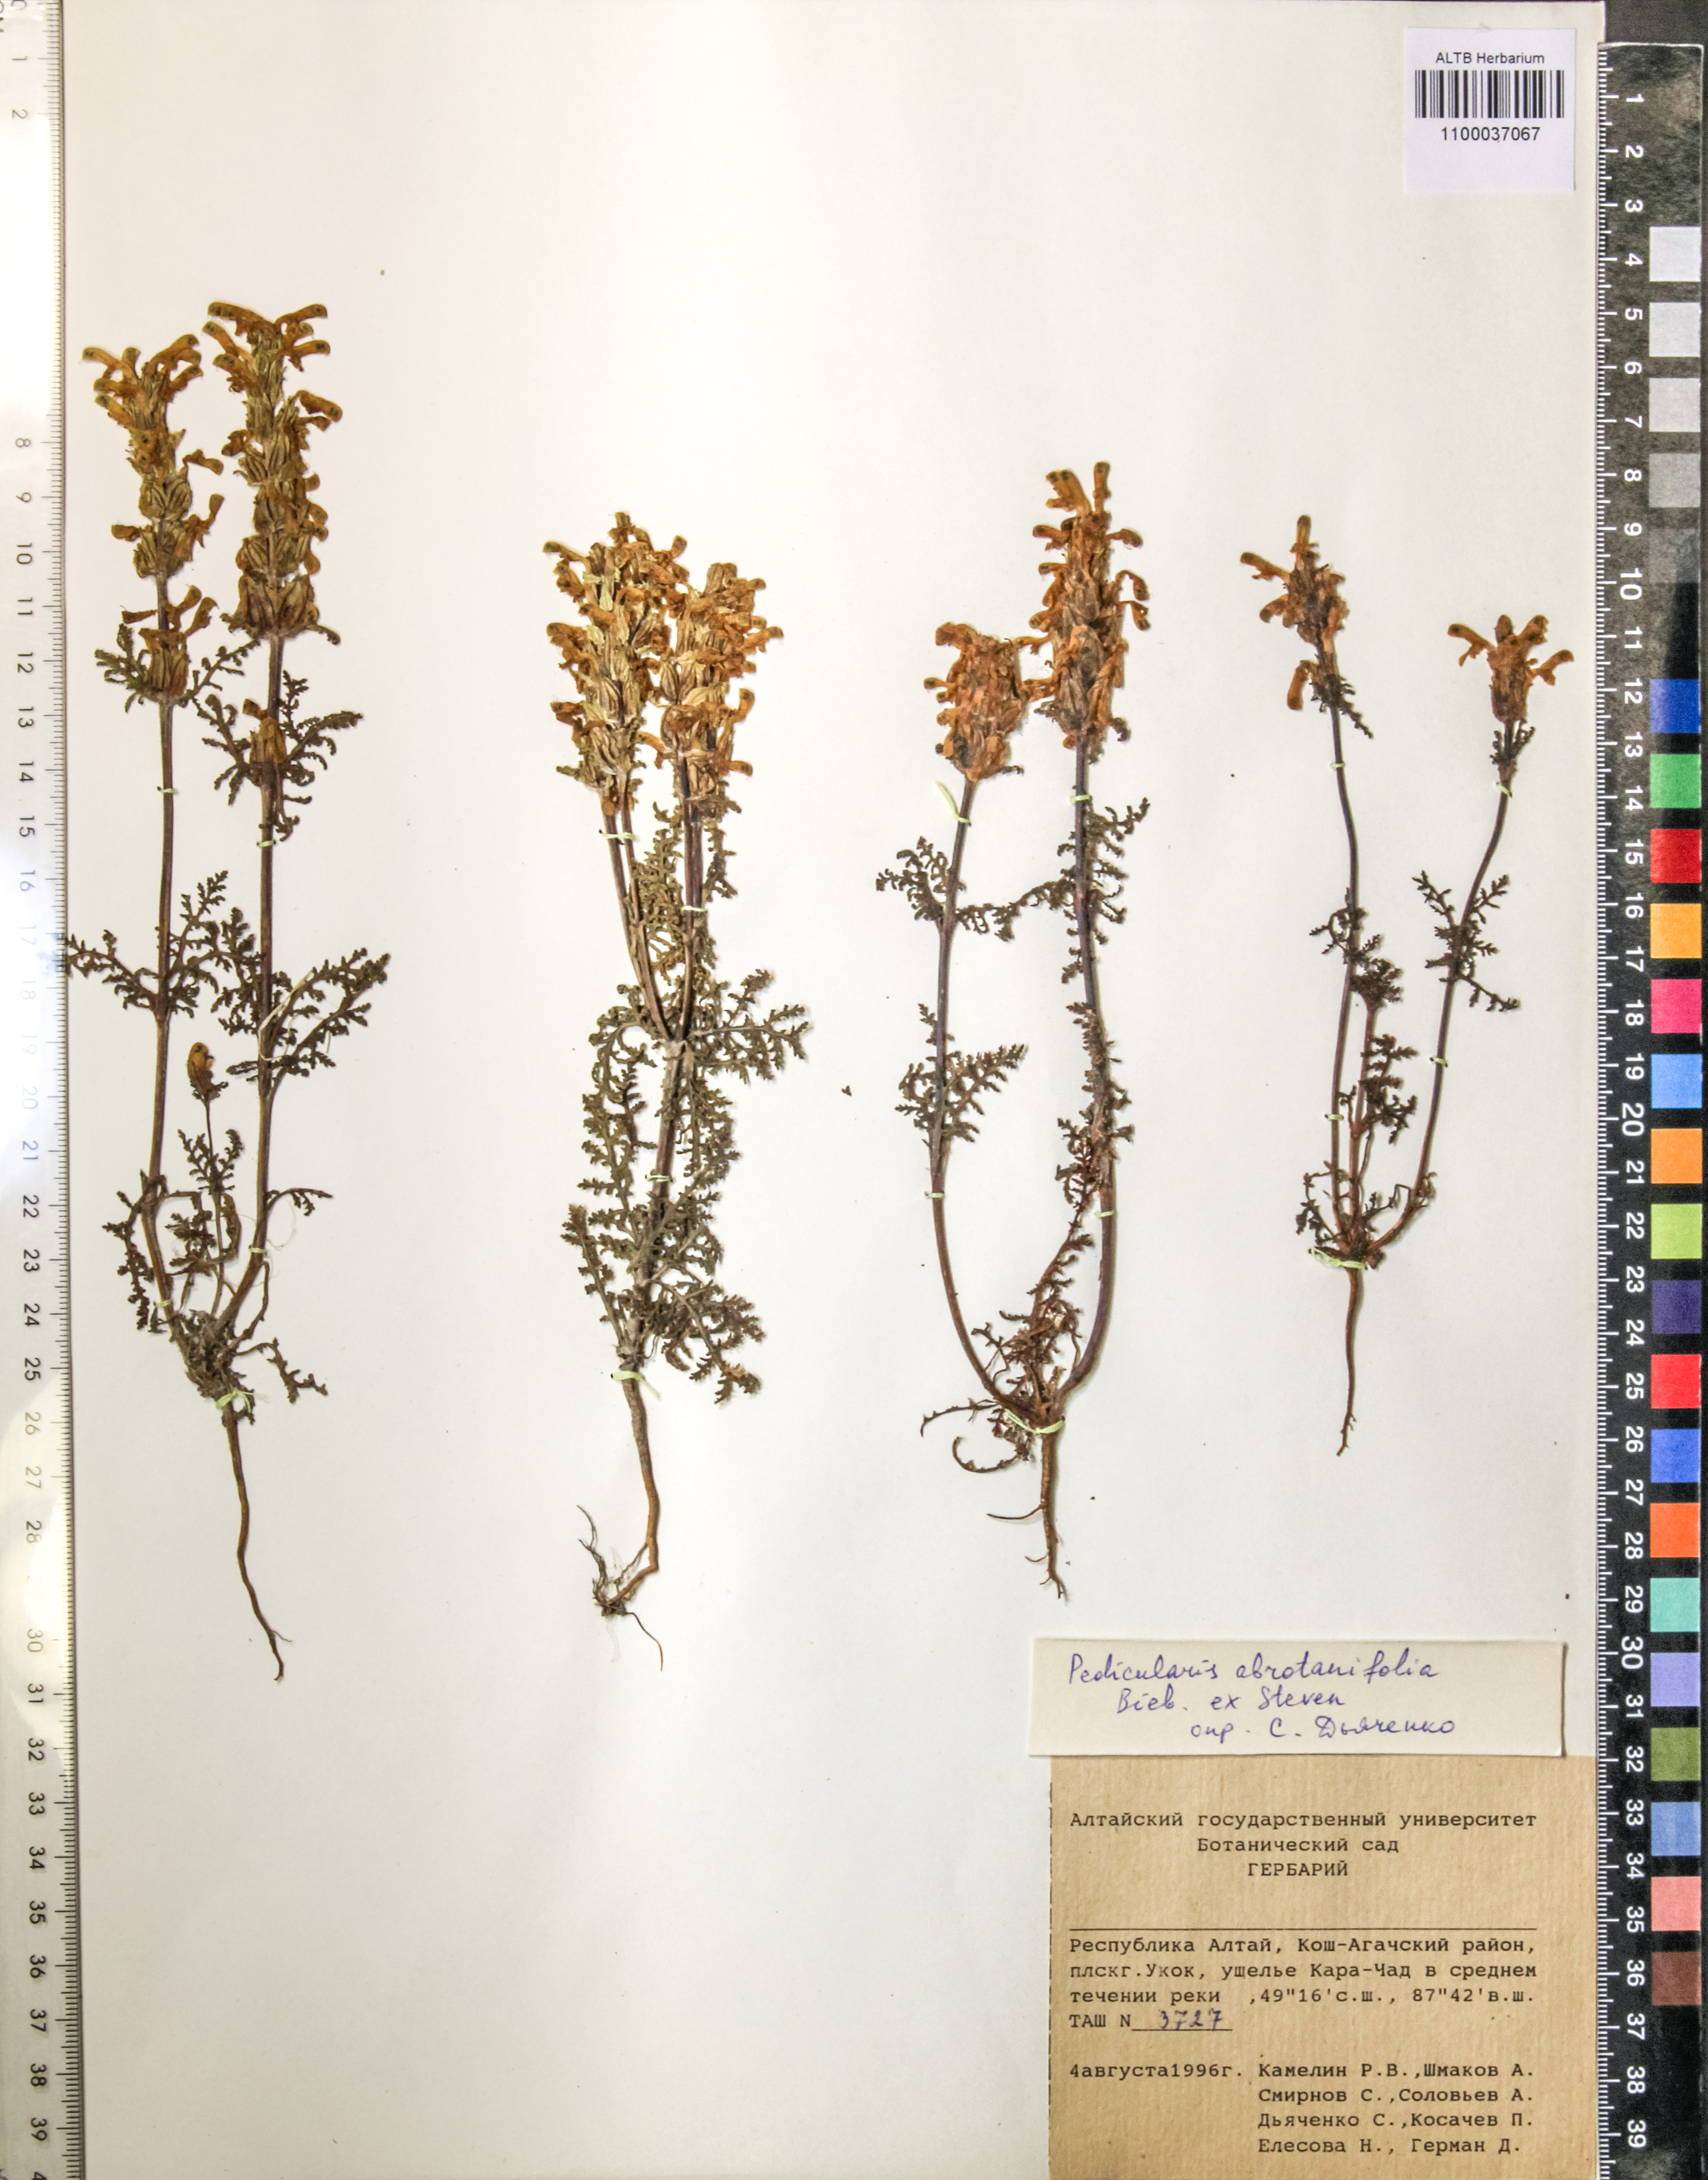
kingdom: Plantae
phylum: Tracheophyta
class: Magnoliopsida
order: Lamiales
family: Orobanchaceae
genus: Pedicularis
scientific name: Pedicularis abrotanifolia
